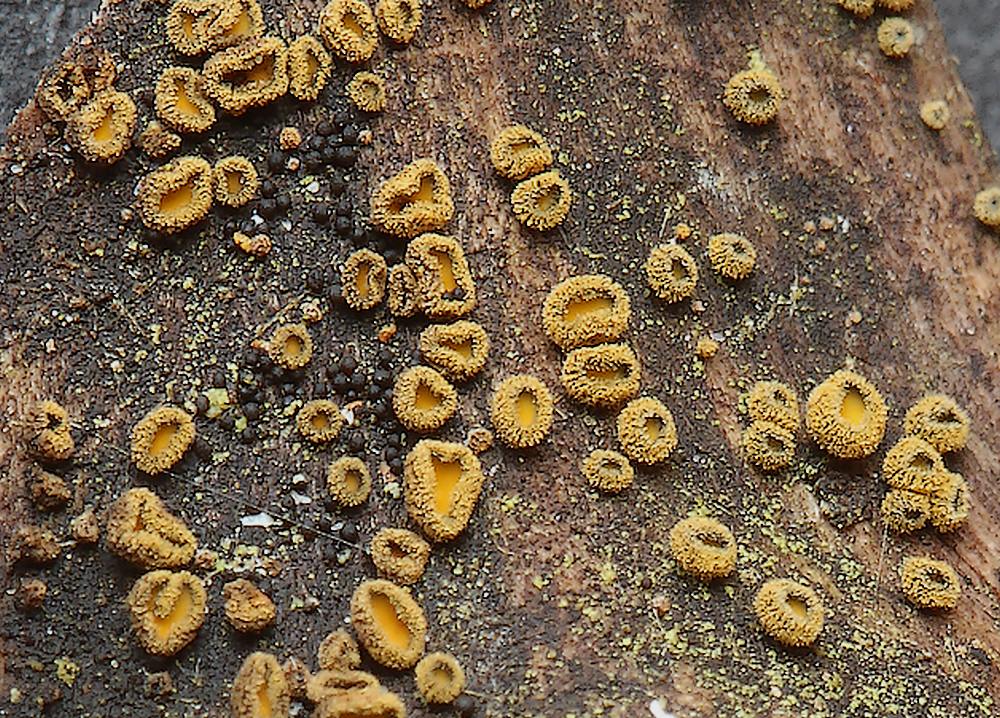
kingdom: Fungi
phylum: Ascomycota
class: Leotiomycetes
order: Helotiales
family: Lachnaceae
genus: Neodasyscypha
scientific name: Neodasyscypha cerina
